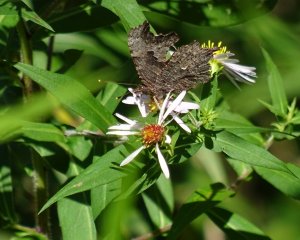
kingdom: Animalia
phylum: Arthropoda
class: Insecta
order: Lepidoptera
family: Nymphalidae
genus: Polygonia
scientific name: Polygonia progne
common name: Gray Comma
